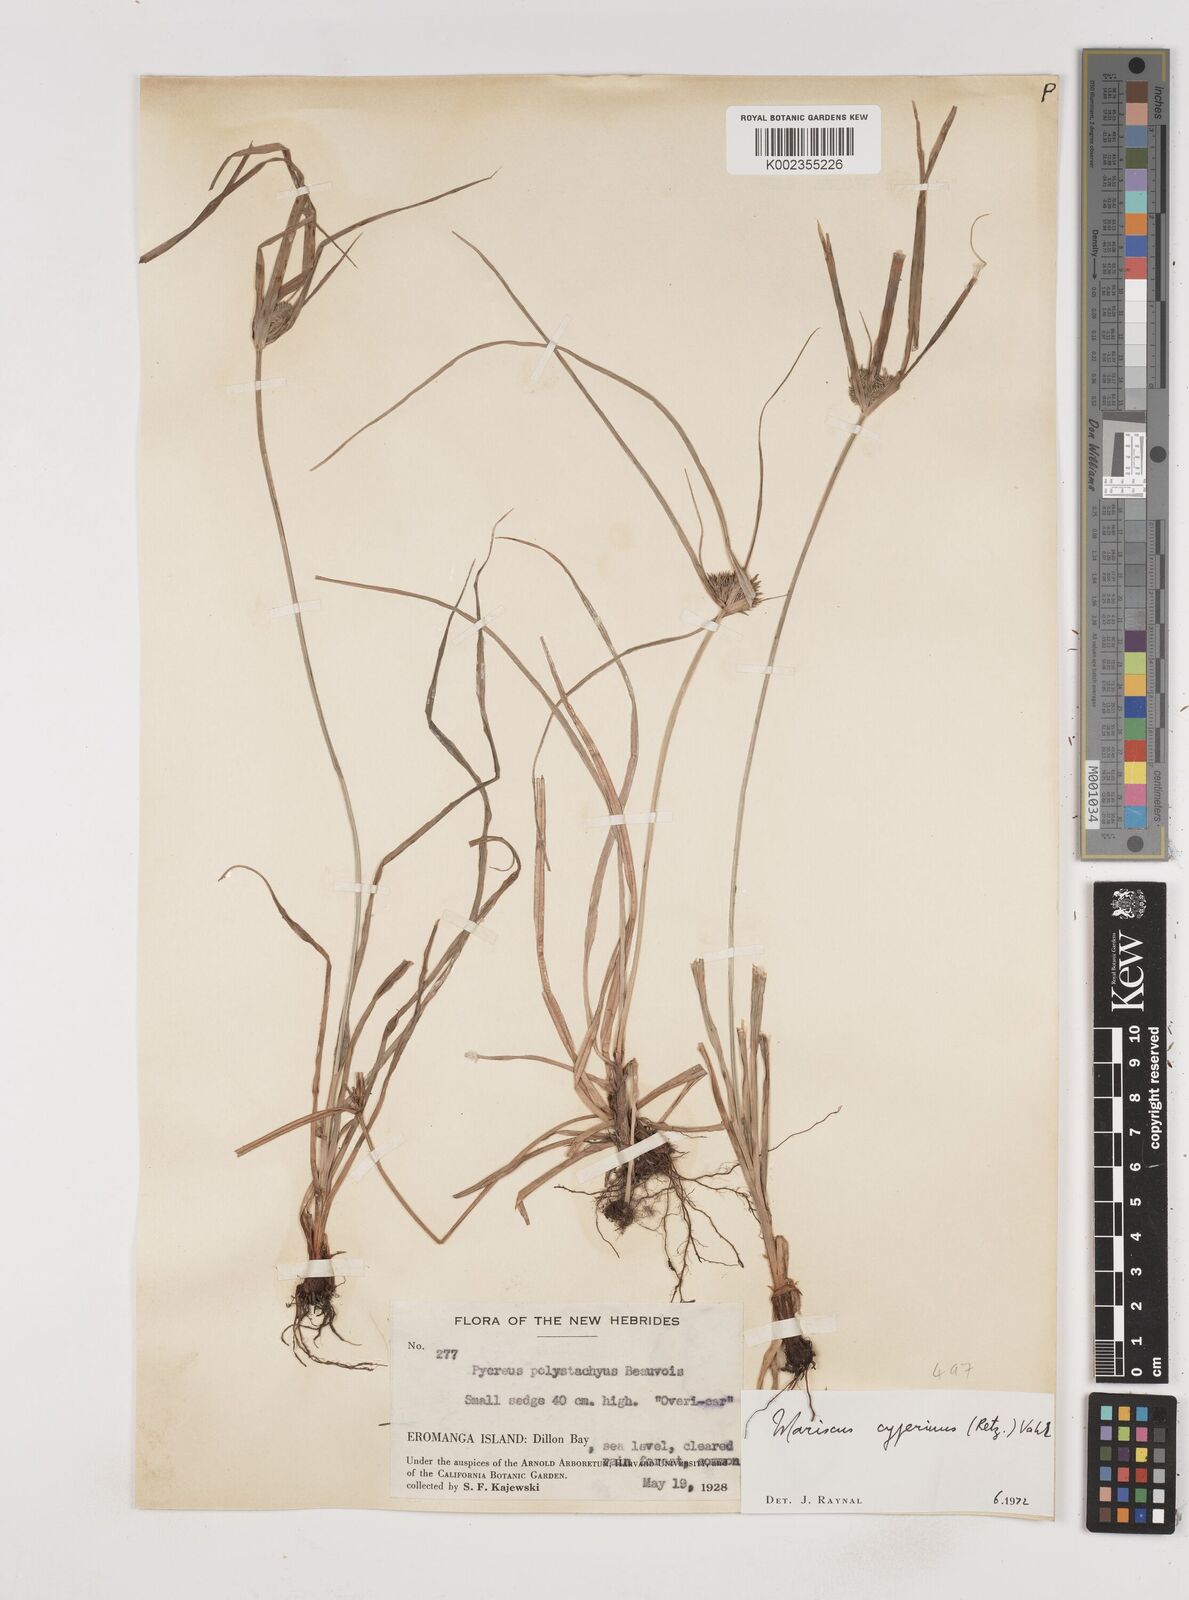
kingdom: Plantae
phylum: Tracheophyta
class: Liliopsida
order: Poales
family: Cyperaceae
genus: Cyperus
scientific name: Cyperus cyperinus
